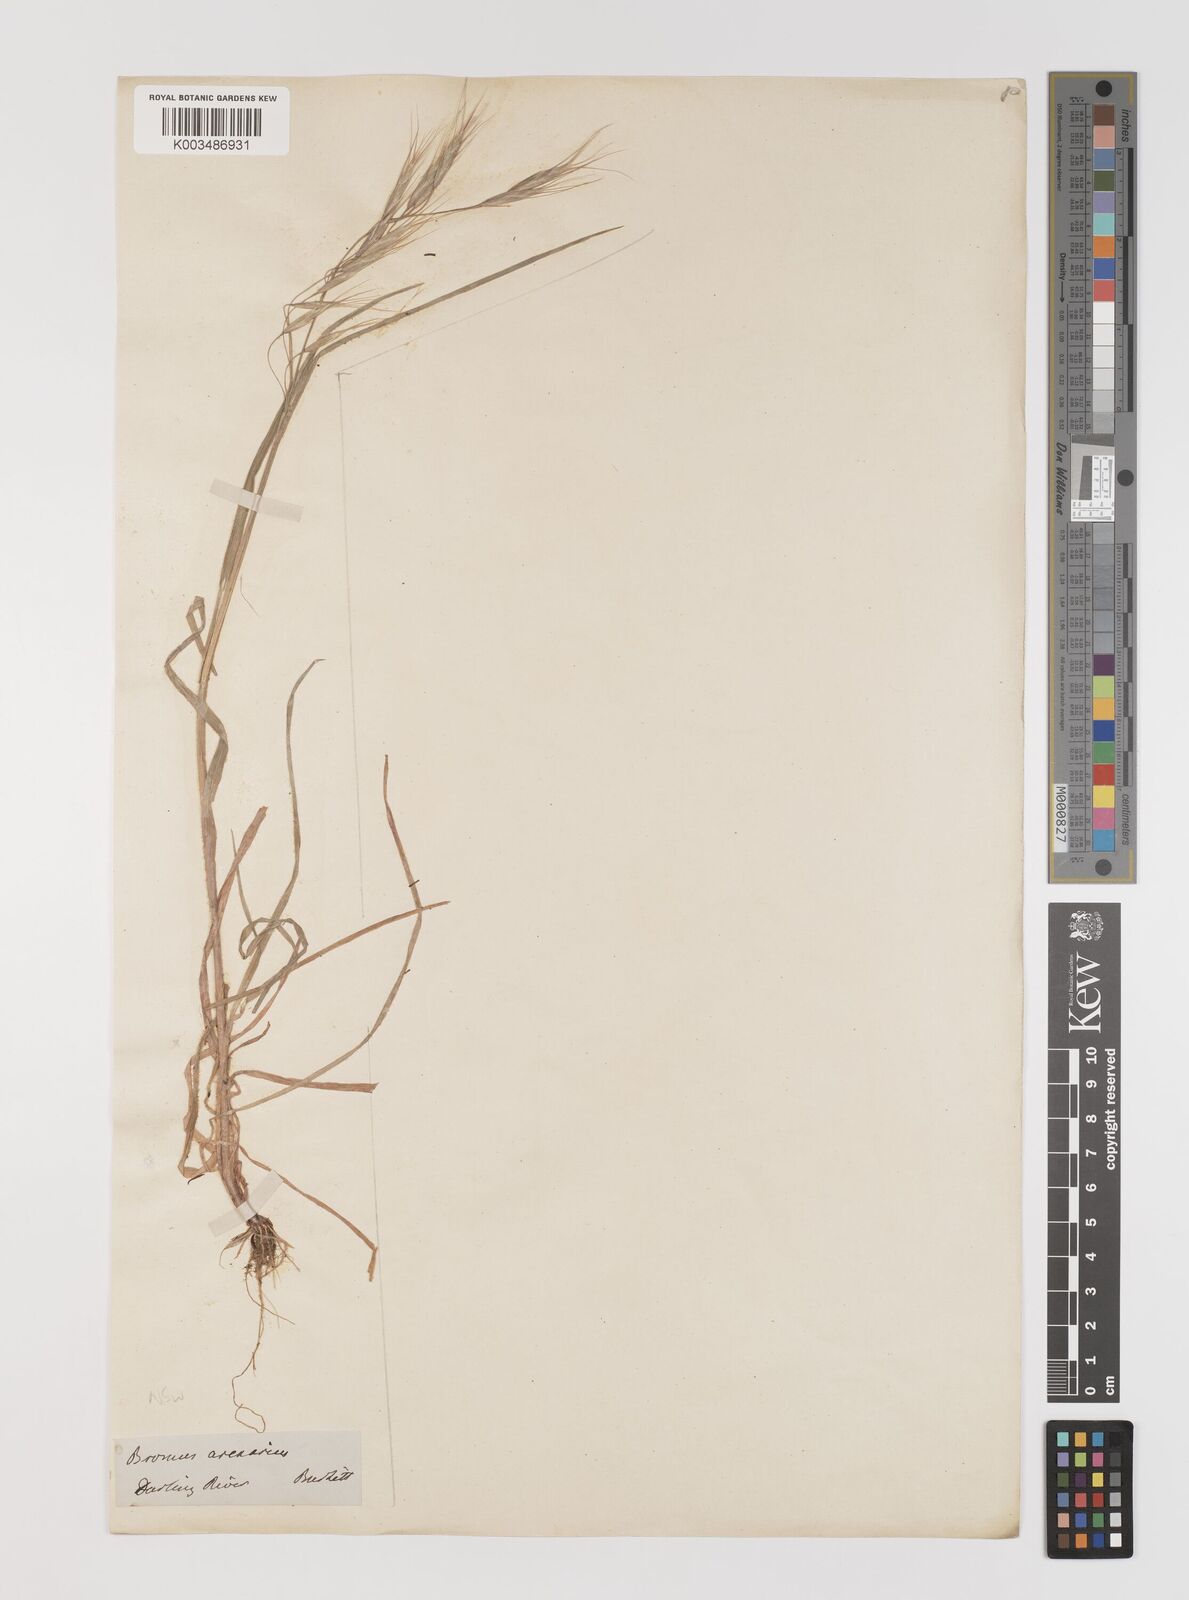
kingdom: Plantae
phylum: Tracheophyta
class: Liliopsida
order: Poales
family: Poaceae
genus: Bromus
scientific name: Bromus arenarius
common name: Australian brome
